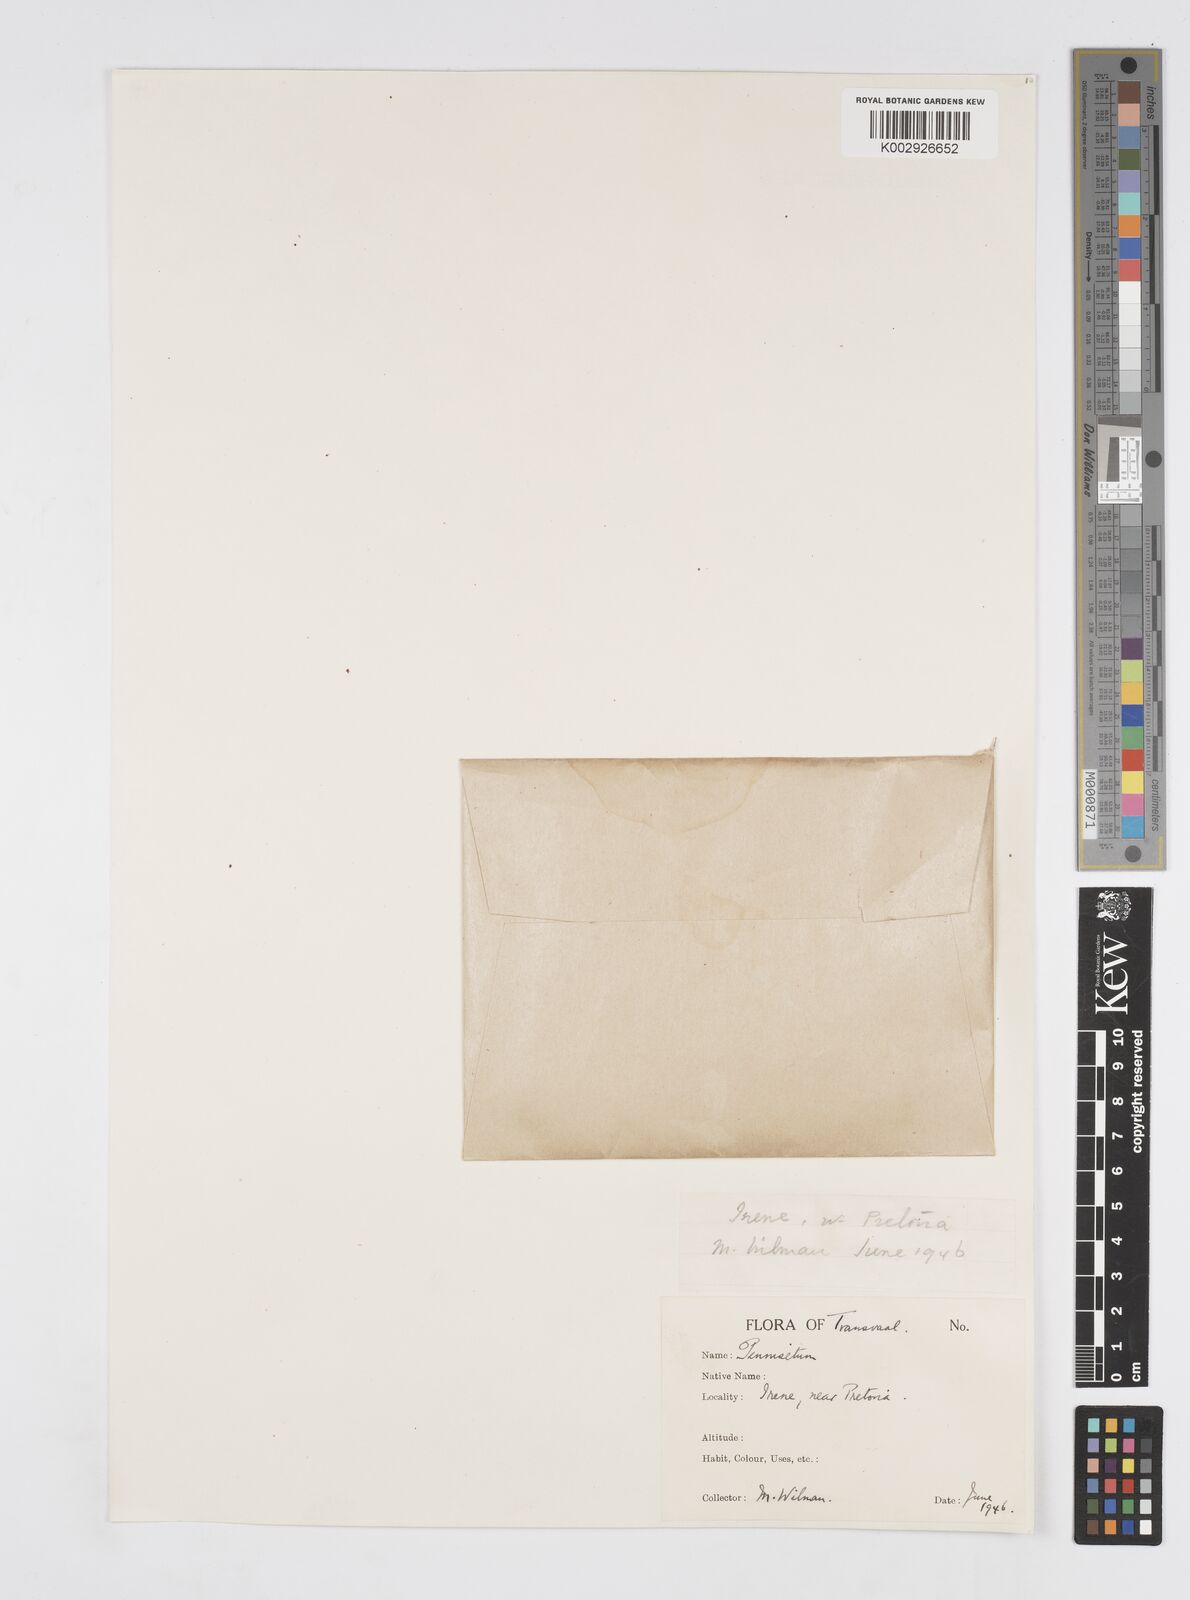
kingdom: Plantae
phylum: Tracheophyta
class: Liliopsida
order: Poales
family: Poaceae
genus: Cenchrus
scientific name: Cenchrus setaceus
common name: Crimson fountaingrass
